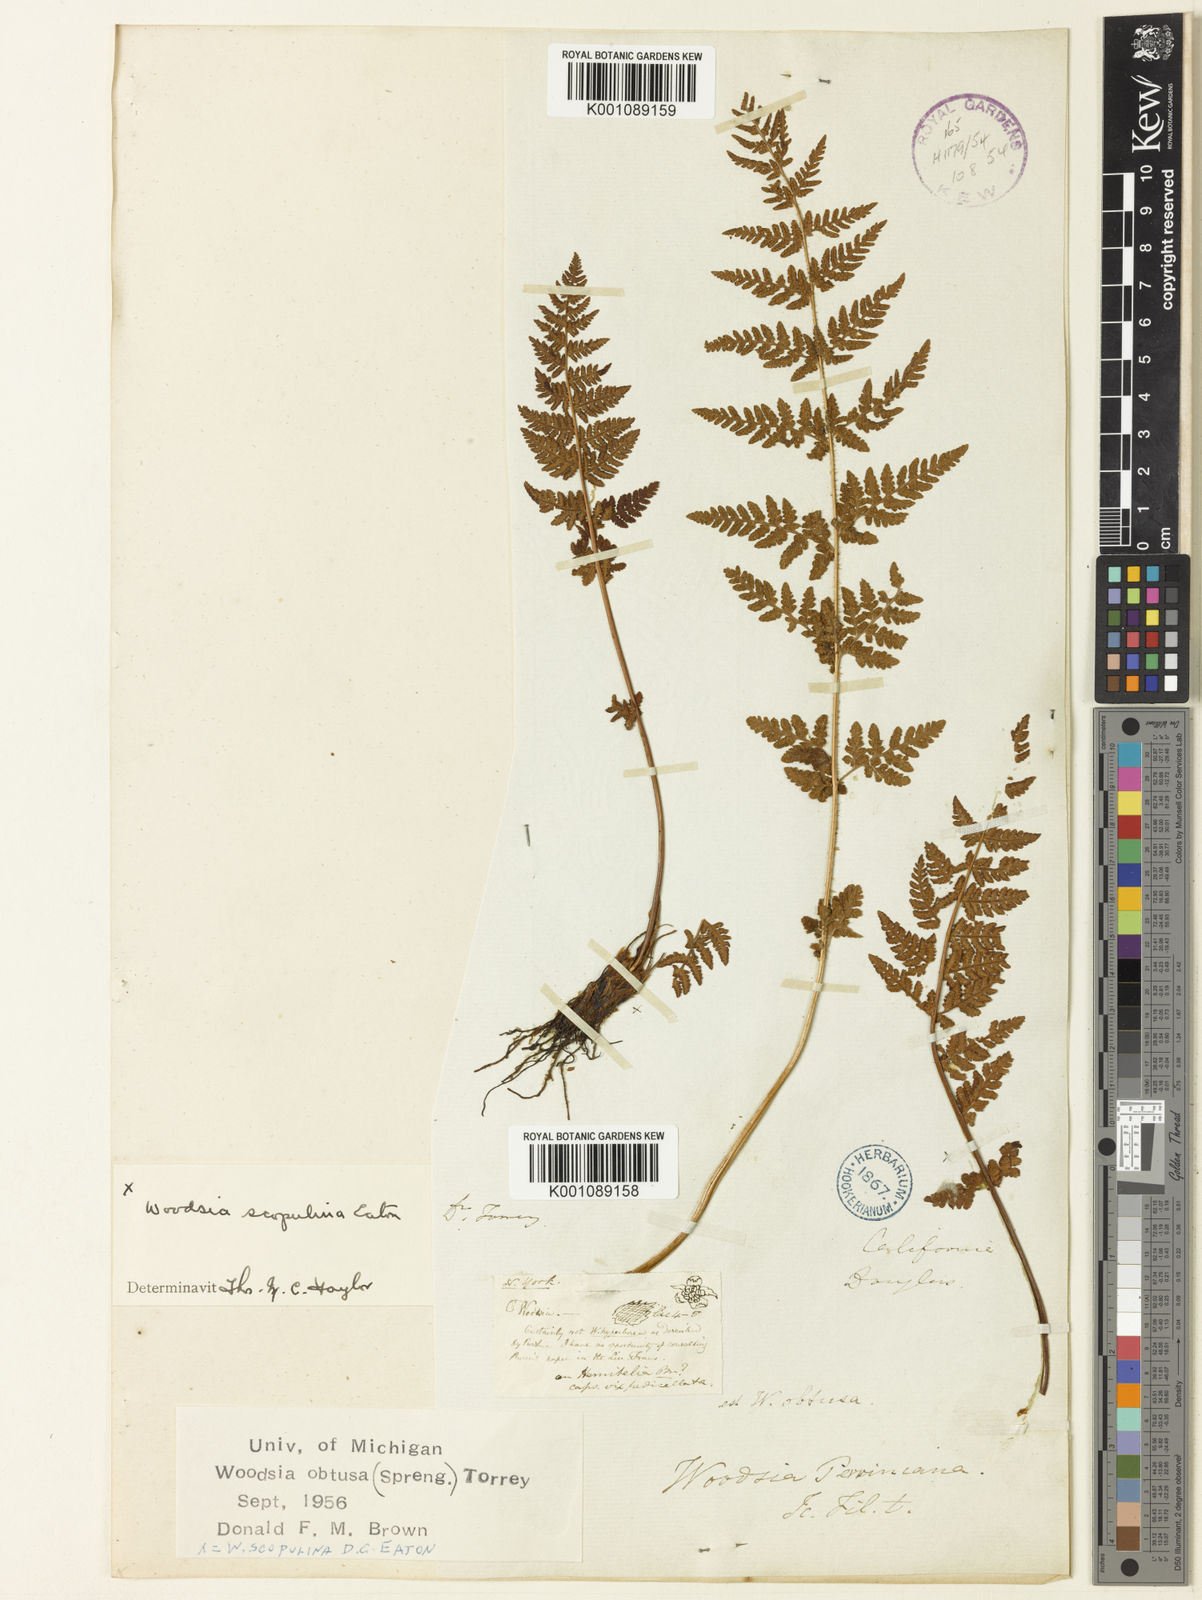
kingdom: Plantae
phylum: Tracheophyta
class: Polypodiopsida
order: Polypodiales
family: Woodsiaceae
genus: Physematium
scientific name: Physematium obtusum
